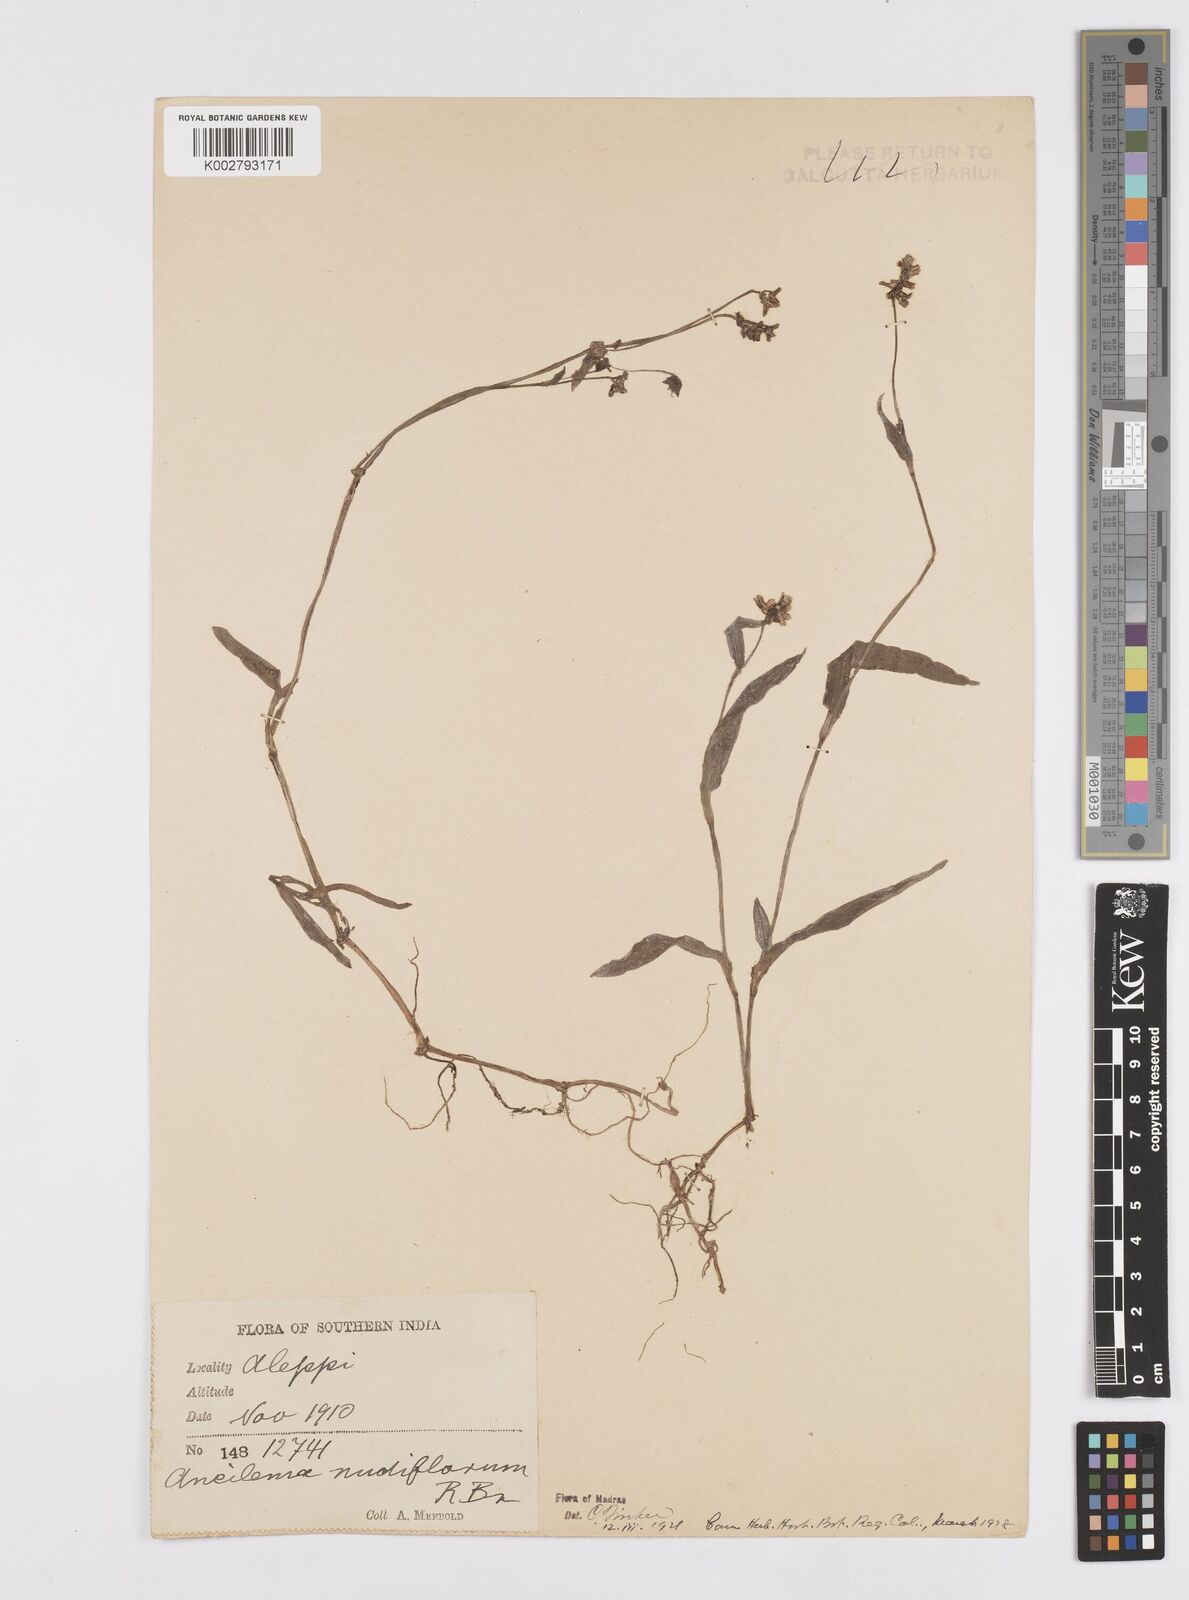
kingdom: Plantae
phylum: Tracheophyta
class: Liliopsida
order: Commelinales
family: Commelinaceae
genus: Murdannia
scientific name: Murdannia nudiflora
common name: Nakedstem dewflower
